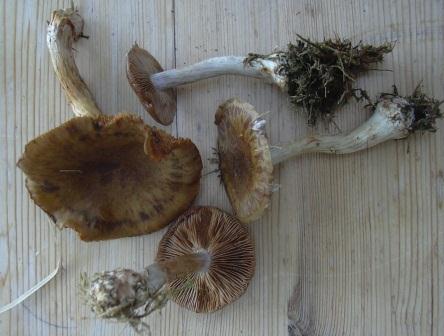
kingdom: Fungi
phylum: Basidiomycota
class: Agaricomycetes
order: Agaricales
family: Cortinariaceae
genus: Thaxterogaster
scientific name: Thaxterogaster sphagnophilus
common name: vandplettet slørhat
